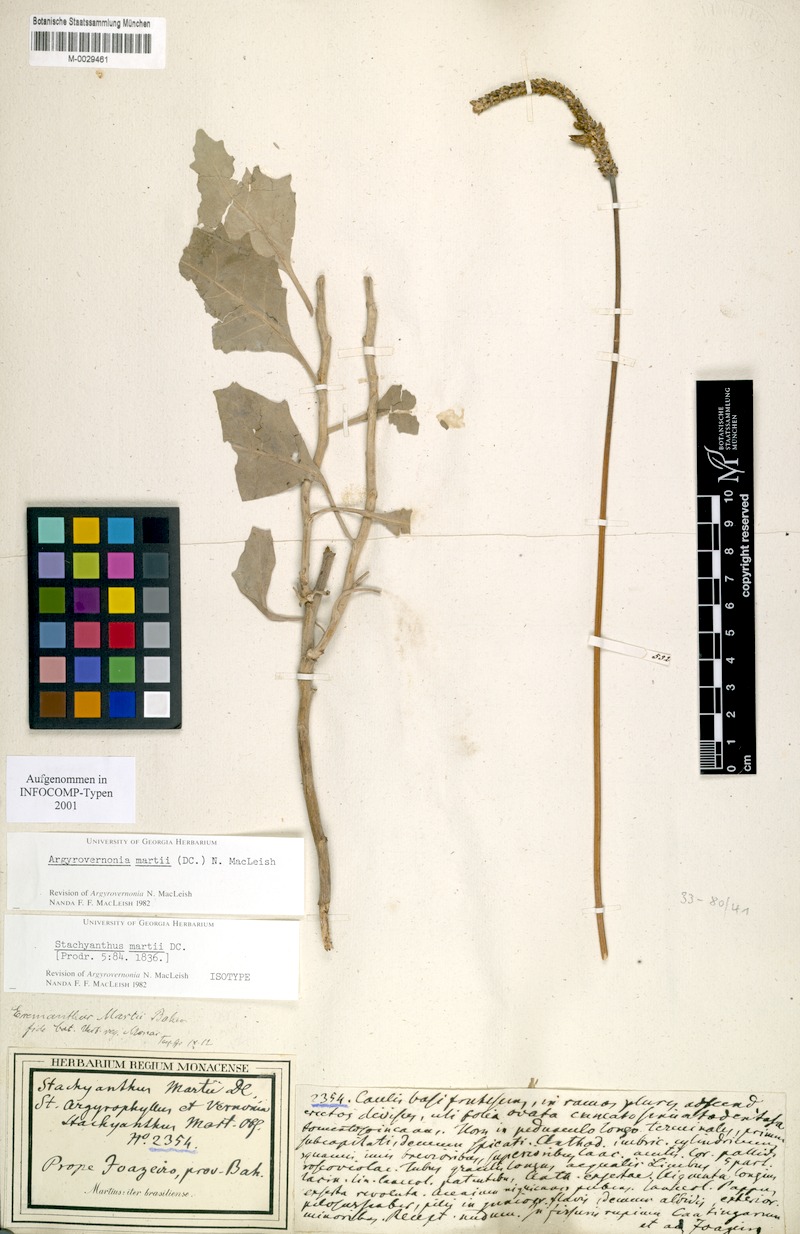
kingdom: Plantae
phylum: Tracheophyta
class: Magnoliopsida
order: Asterales
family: Asteraceae
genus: Chresta
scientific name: Chresta martii
